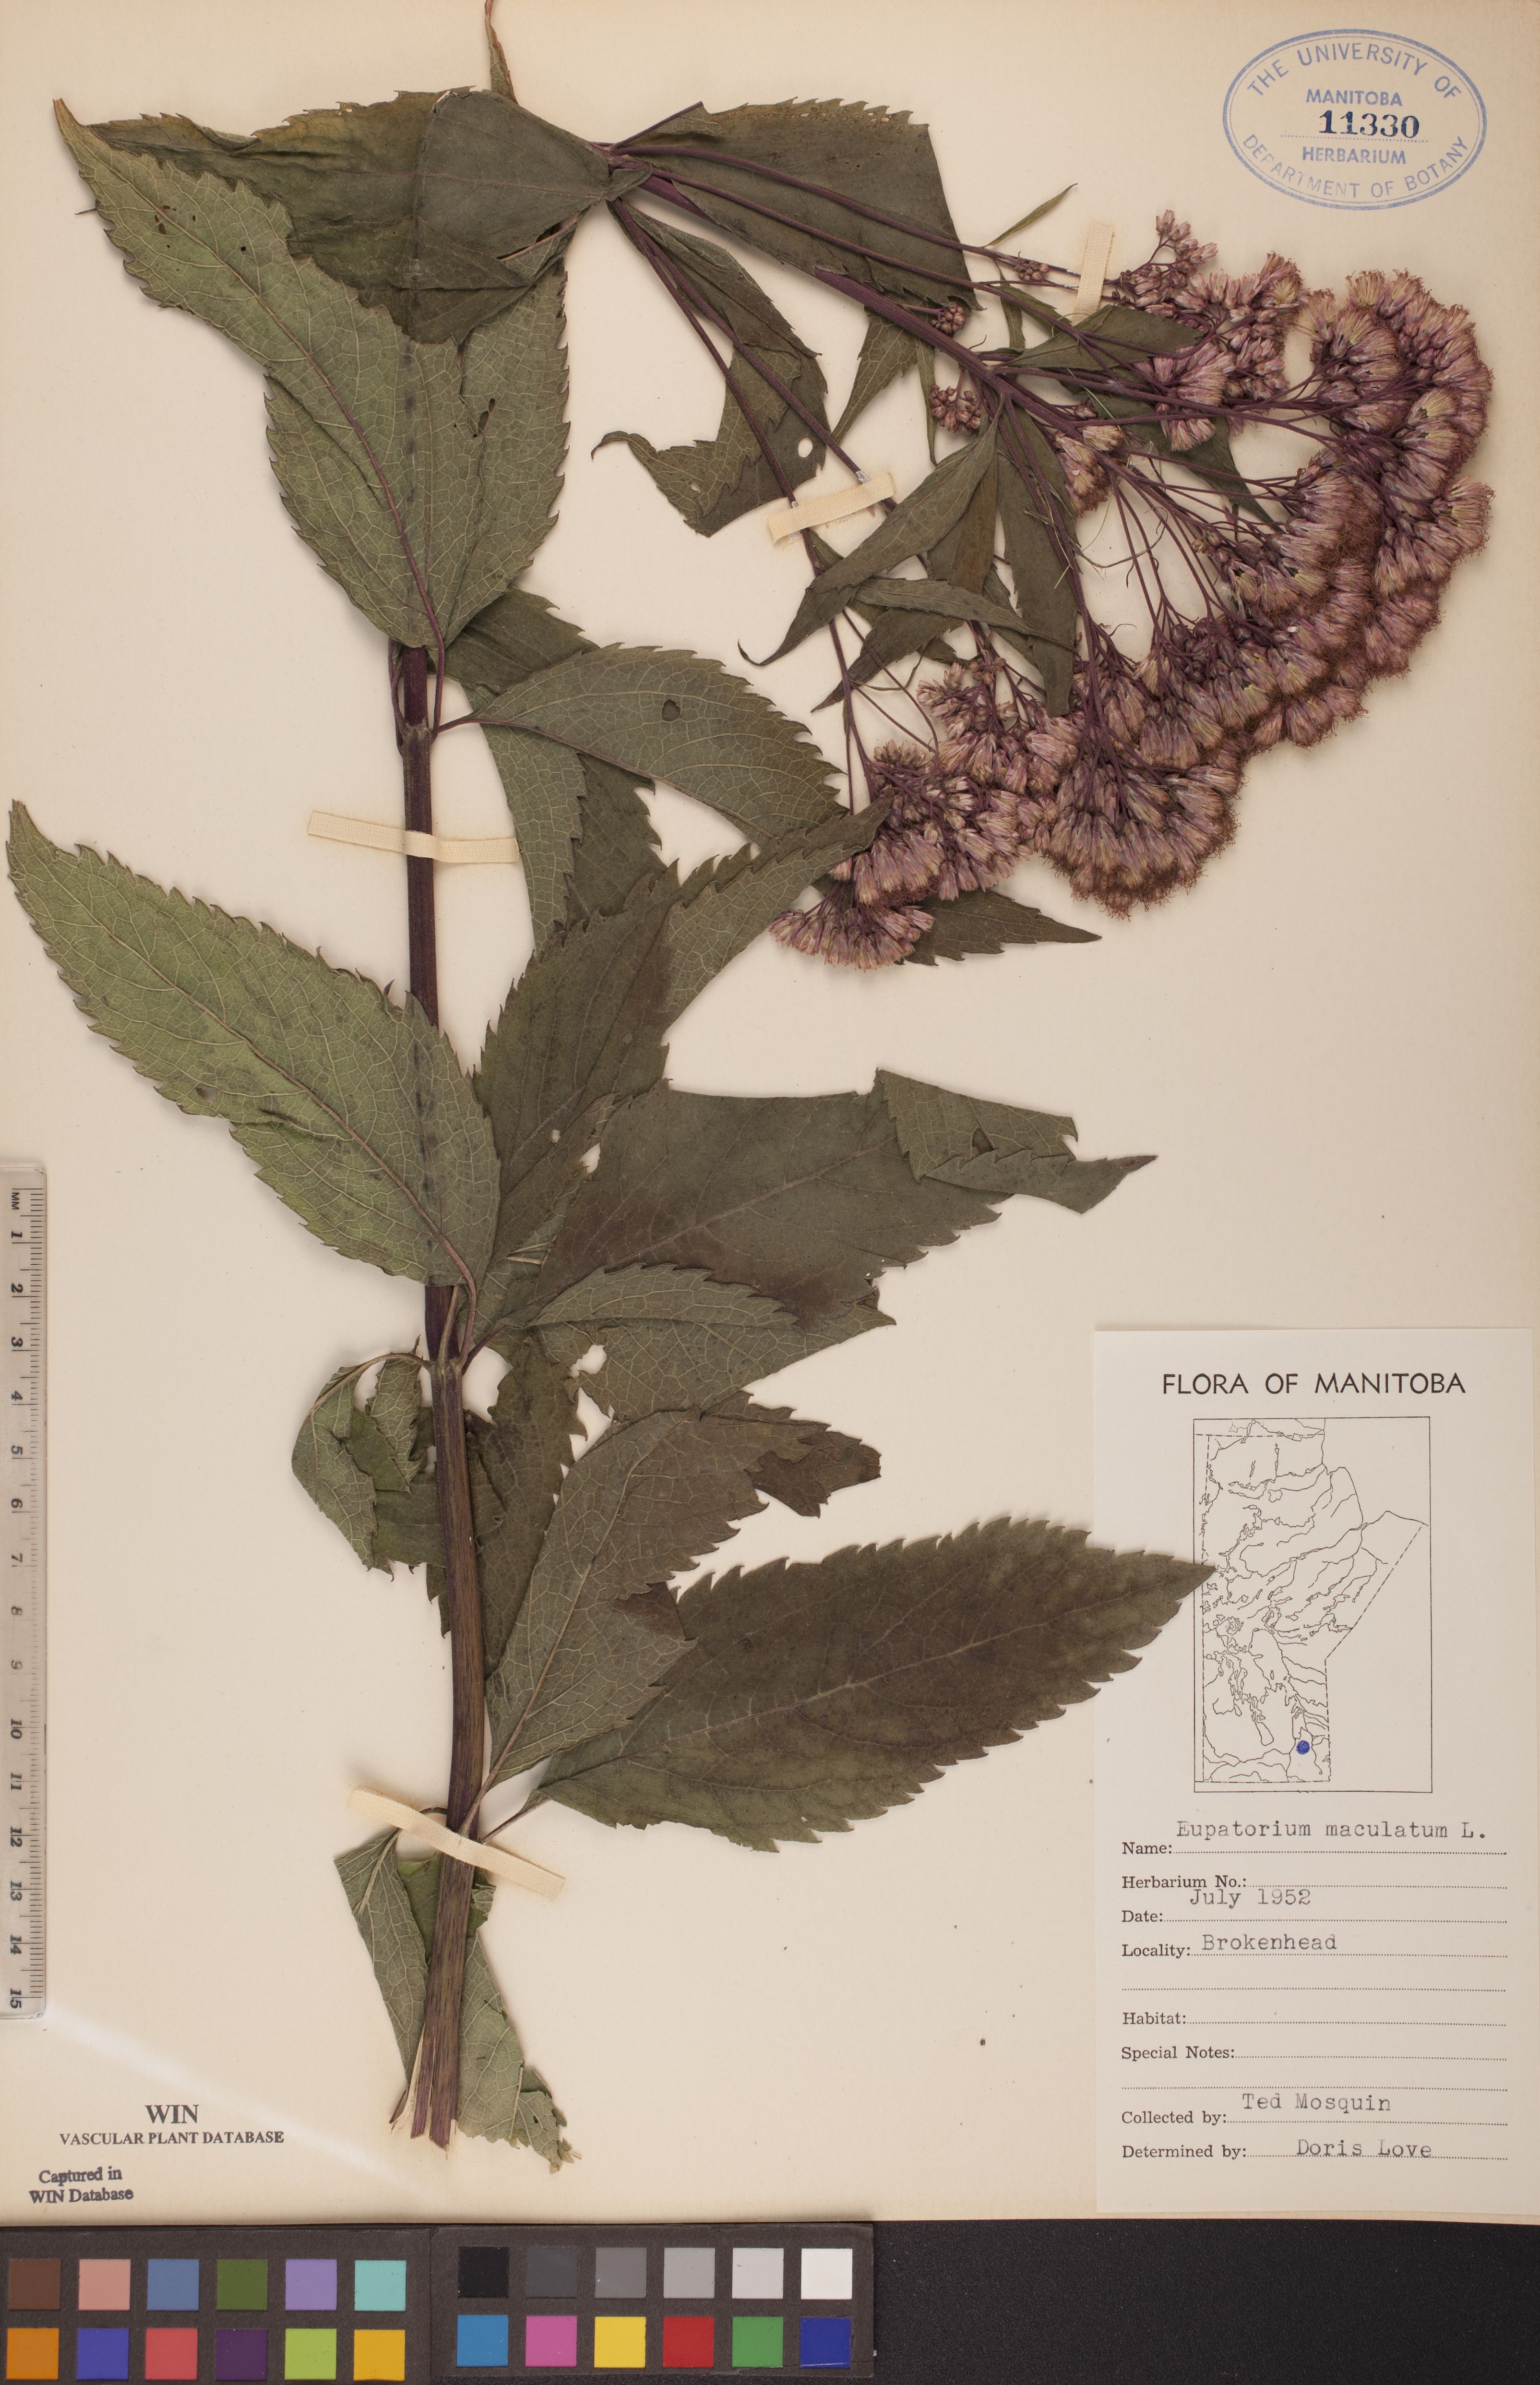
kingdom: Plantae
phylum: Tracheophyta
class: Magnoliopsida
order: Asterales
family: Asteraceae
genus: Eutrochium
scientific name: Eutrochium maculatum
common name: Spotted joe pye weed
